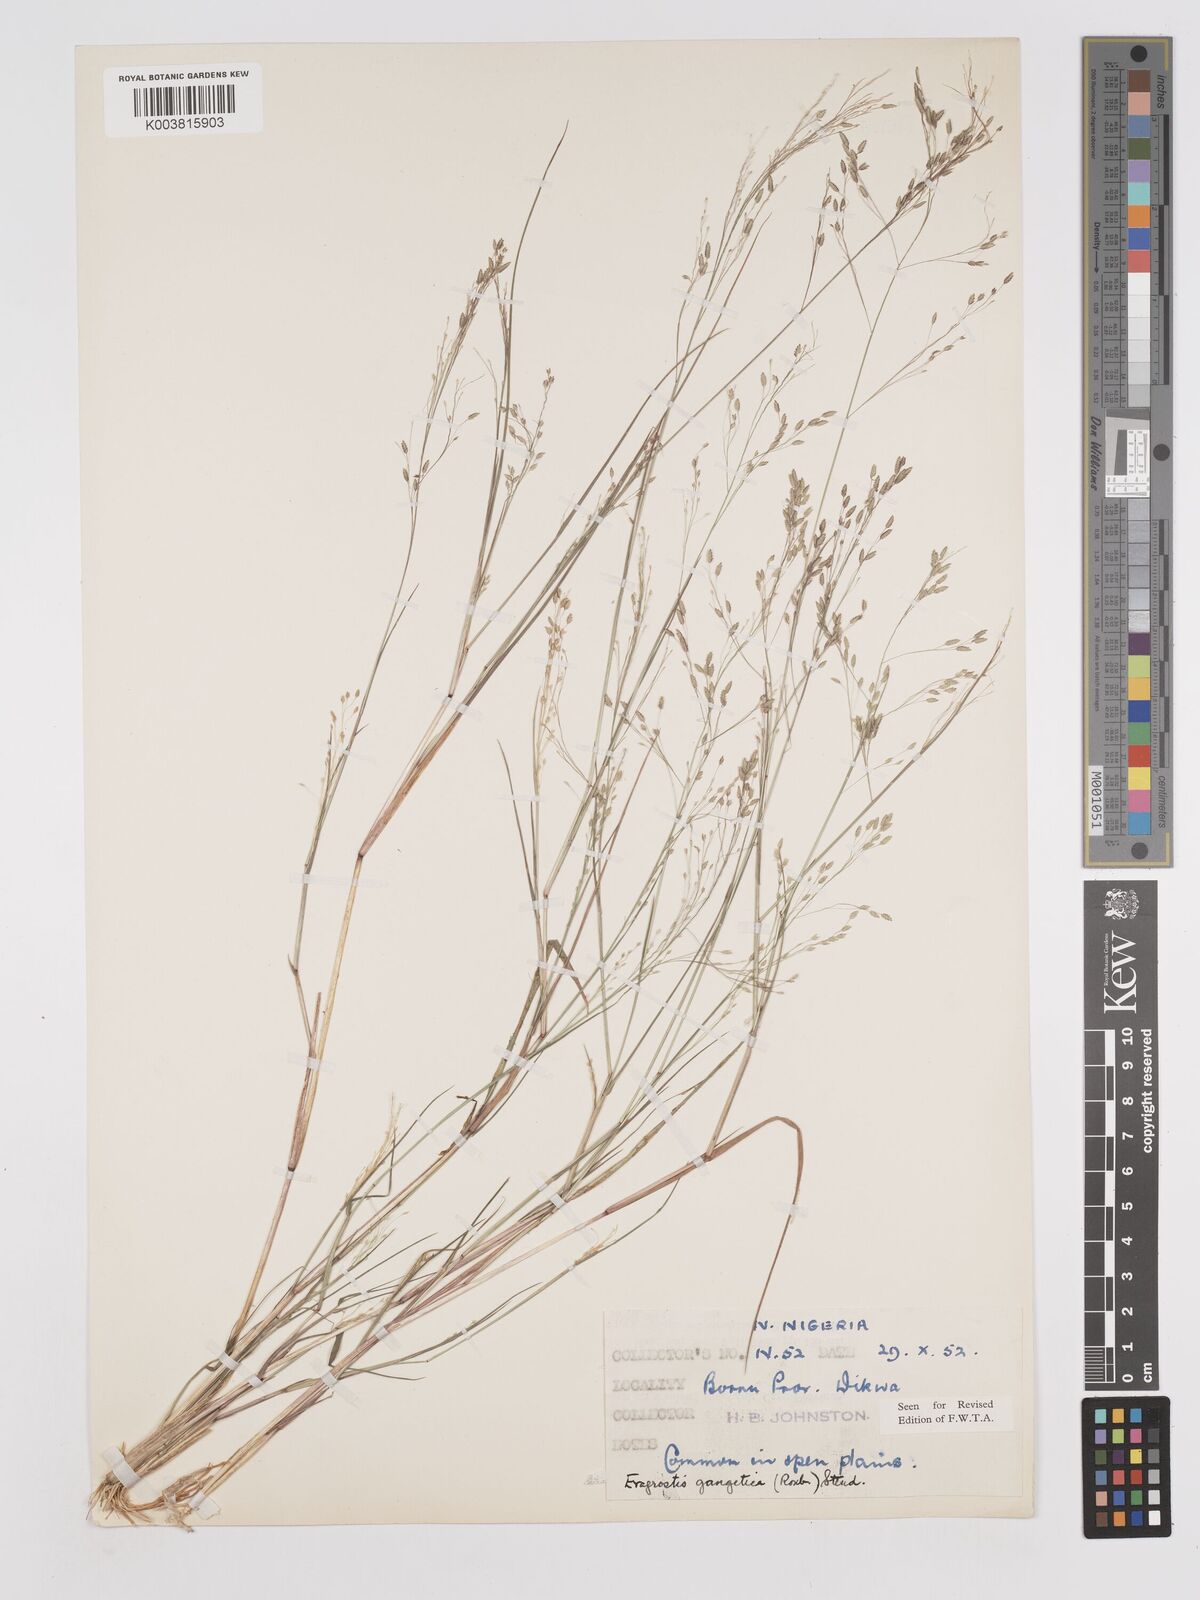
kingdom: Plantae
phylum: Tracheophyta
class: Liliopsida
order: Poales
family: Poaceae
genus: Eragrostis
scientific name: Eragrostis gangetica
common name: Slimflower lovegrass
